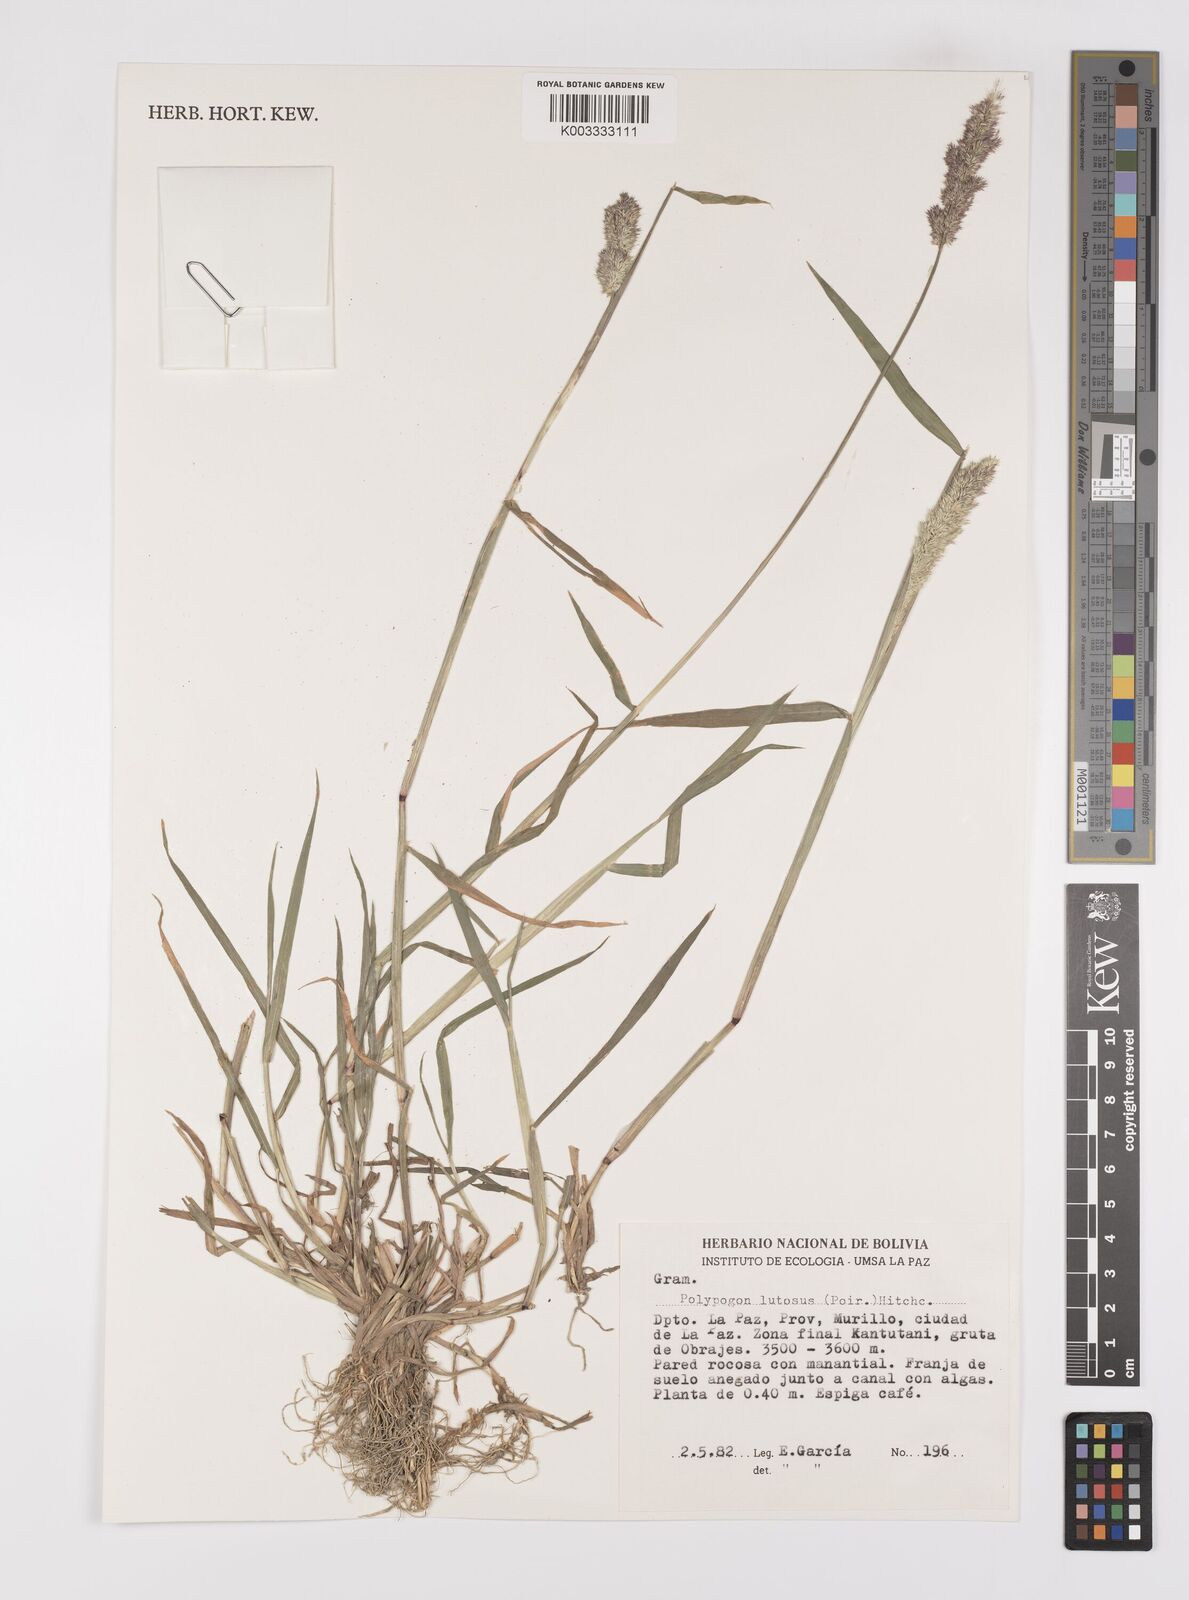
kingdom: Plantae
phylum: Tracheophyta
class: Liliopsida
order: Poales
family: Poaceae
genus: Polypogon
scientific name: Polypogon interruptus
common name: Ditch polypogon
